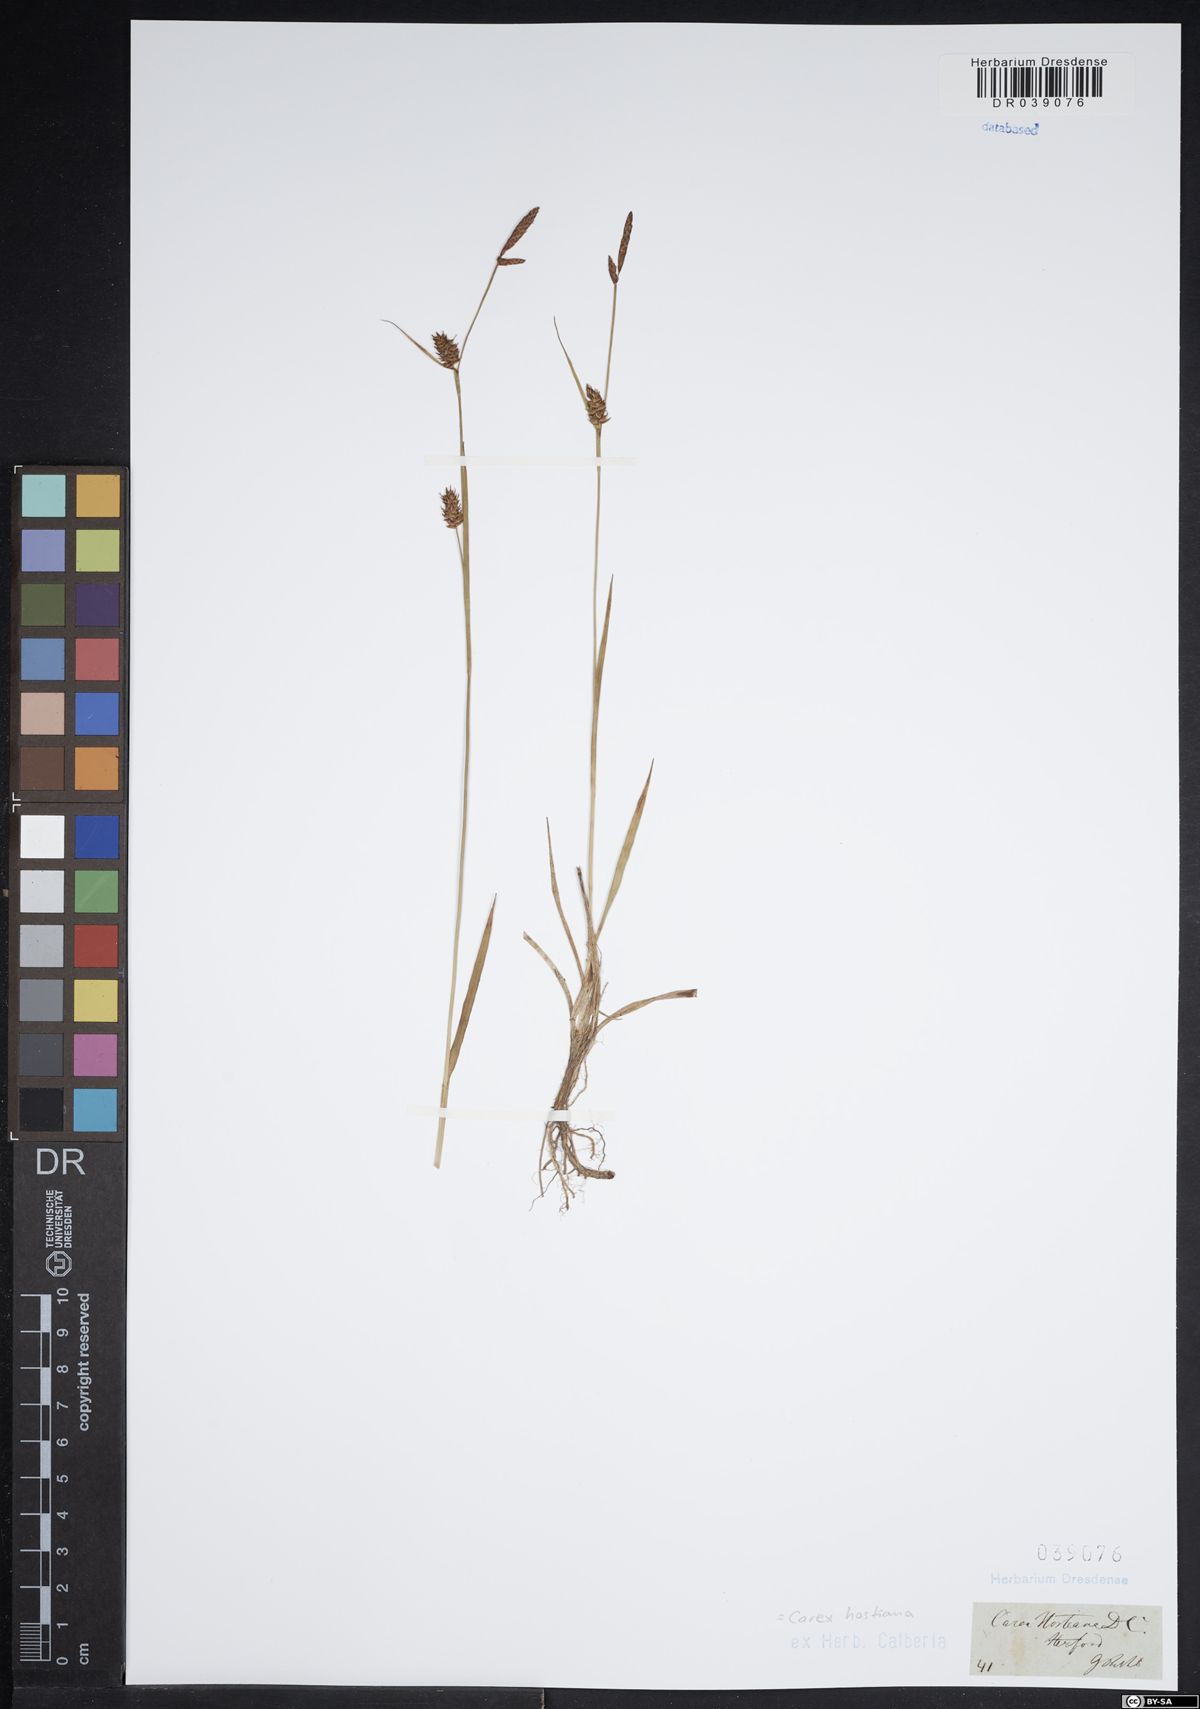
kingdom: Plantae
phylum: Tracheophyta
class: Liliopsida
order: Poales
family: Cyperaceae
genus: Carex
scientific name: Carex hostiana
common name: Tawny sedge
